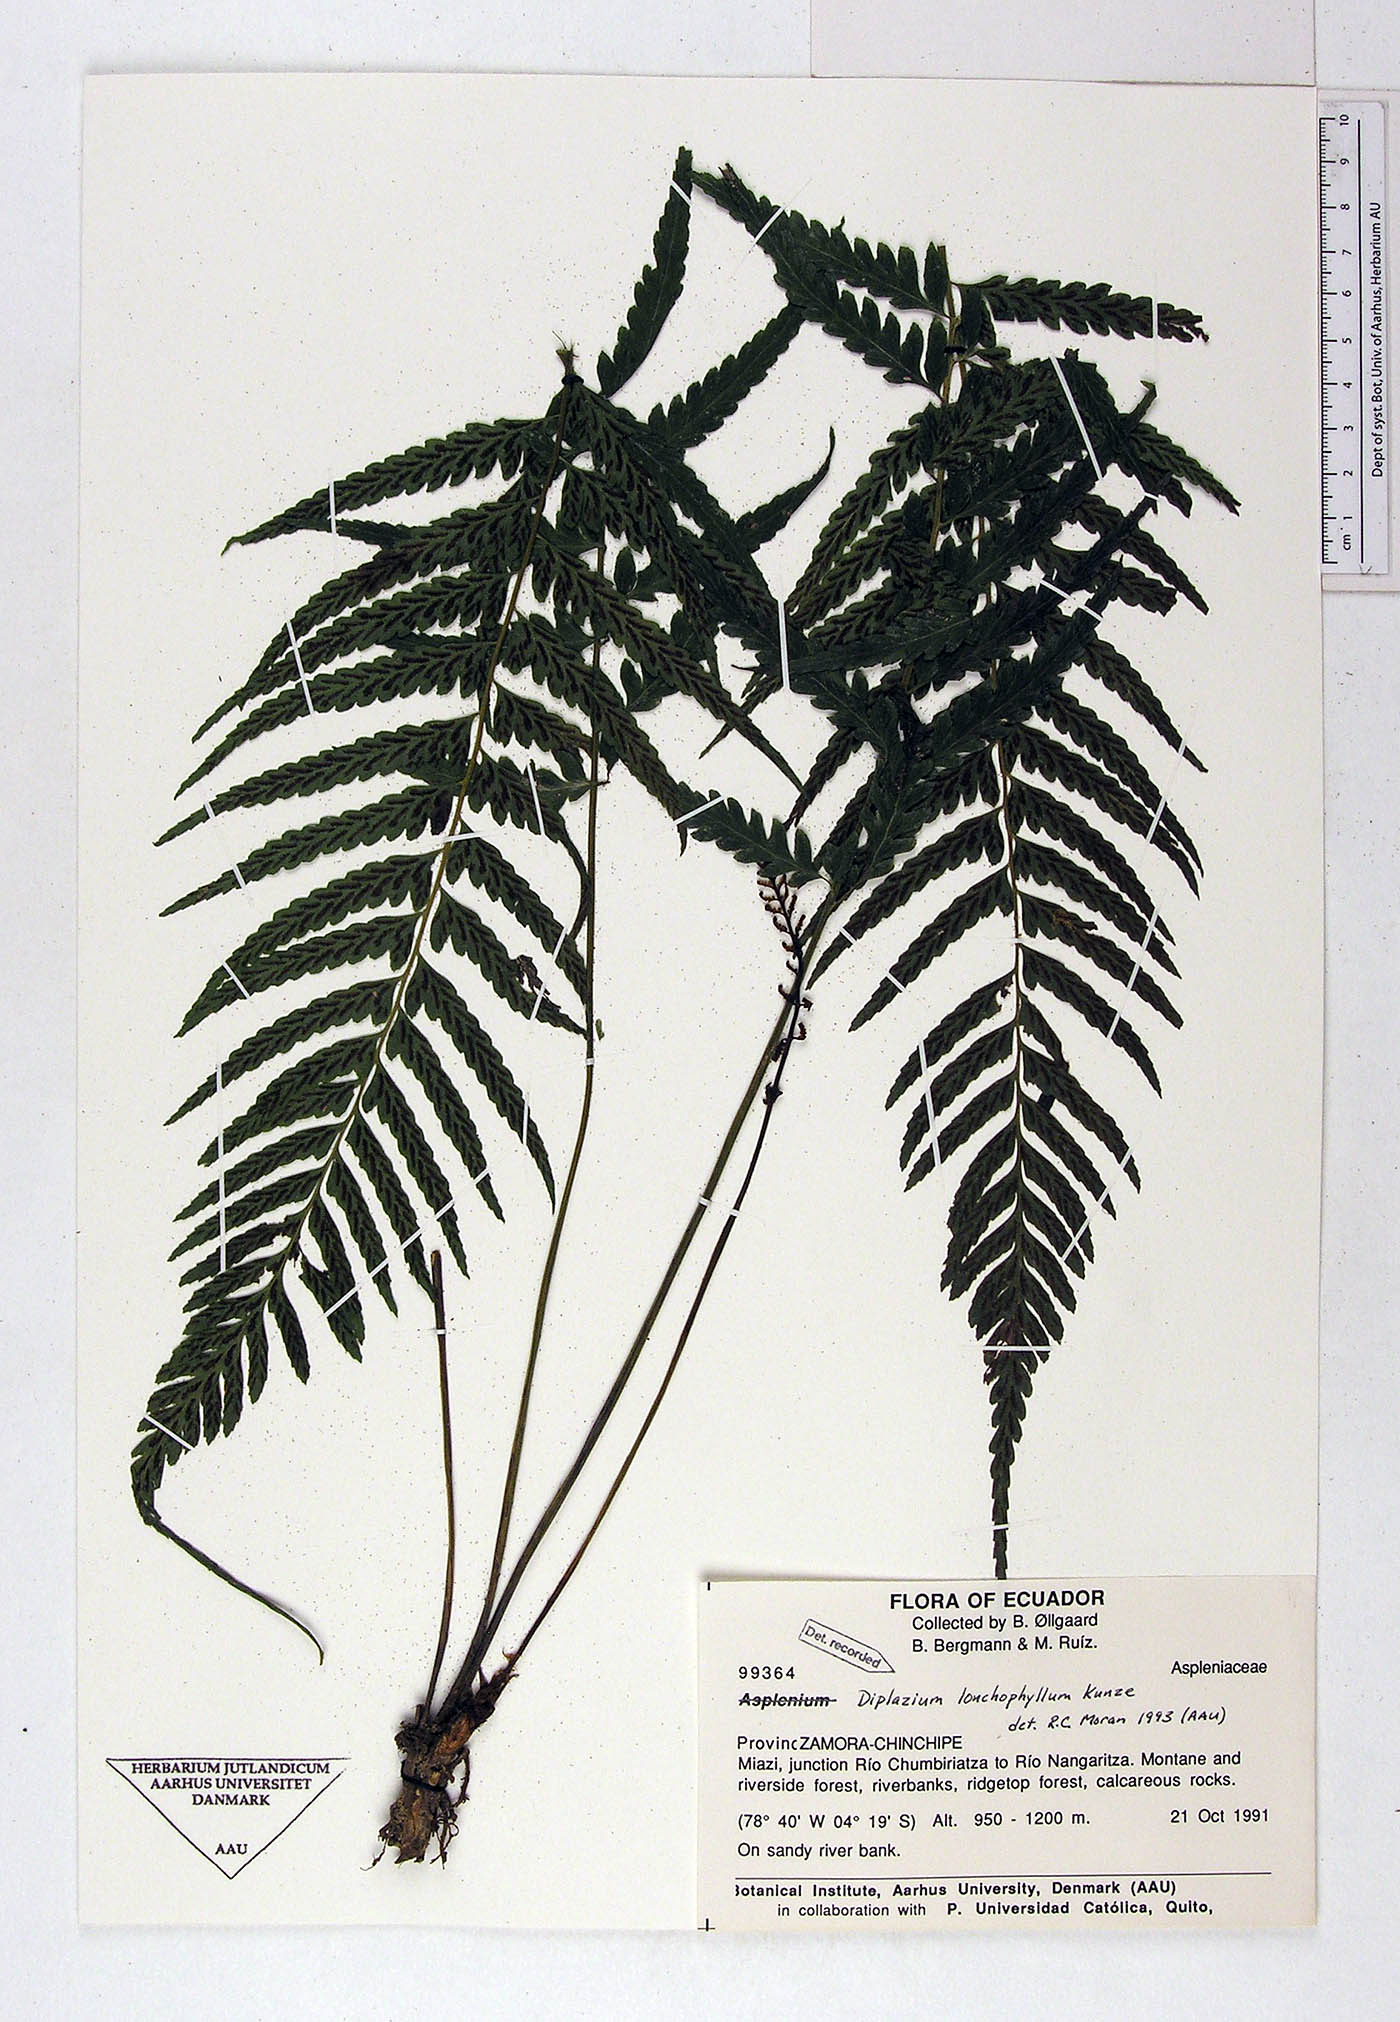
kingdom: Plantae
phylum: Tracheophyta
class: Polypodiopsida
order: Polypodiales
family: Athyriaceae
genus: Diplazium
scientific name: Diplazium lonchophyllum
